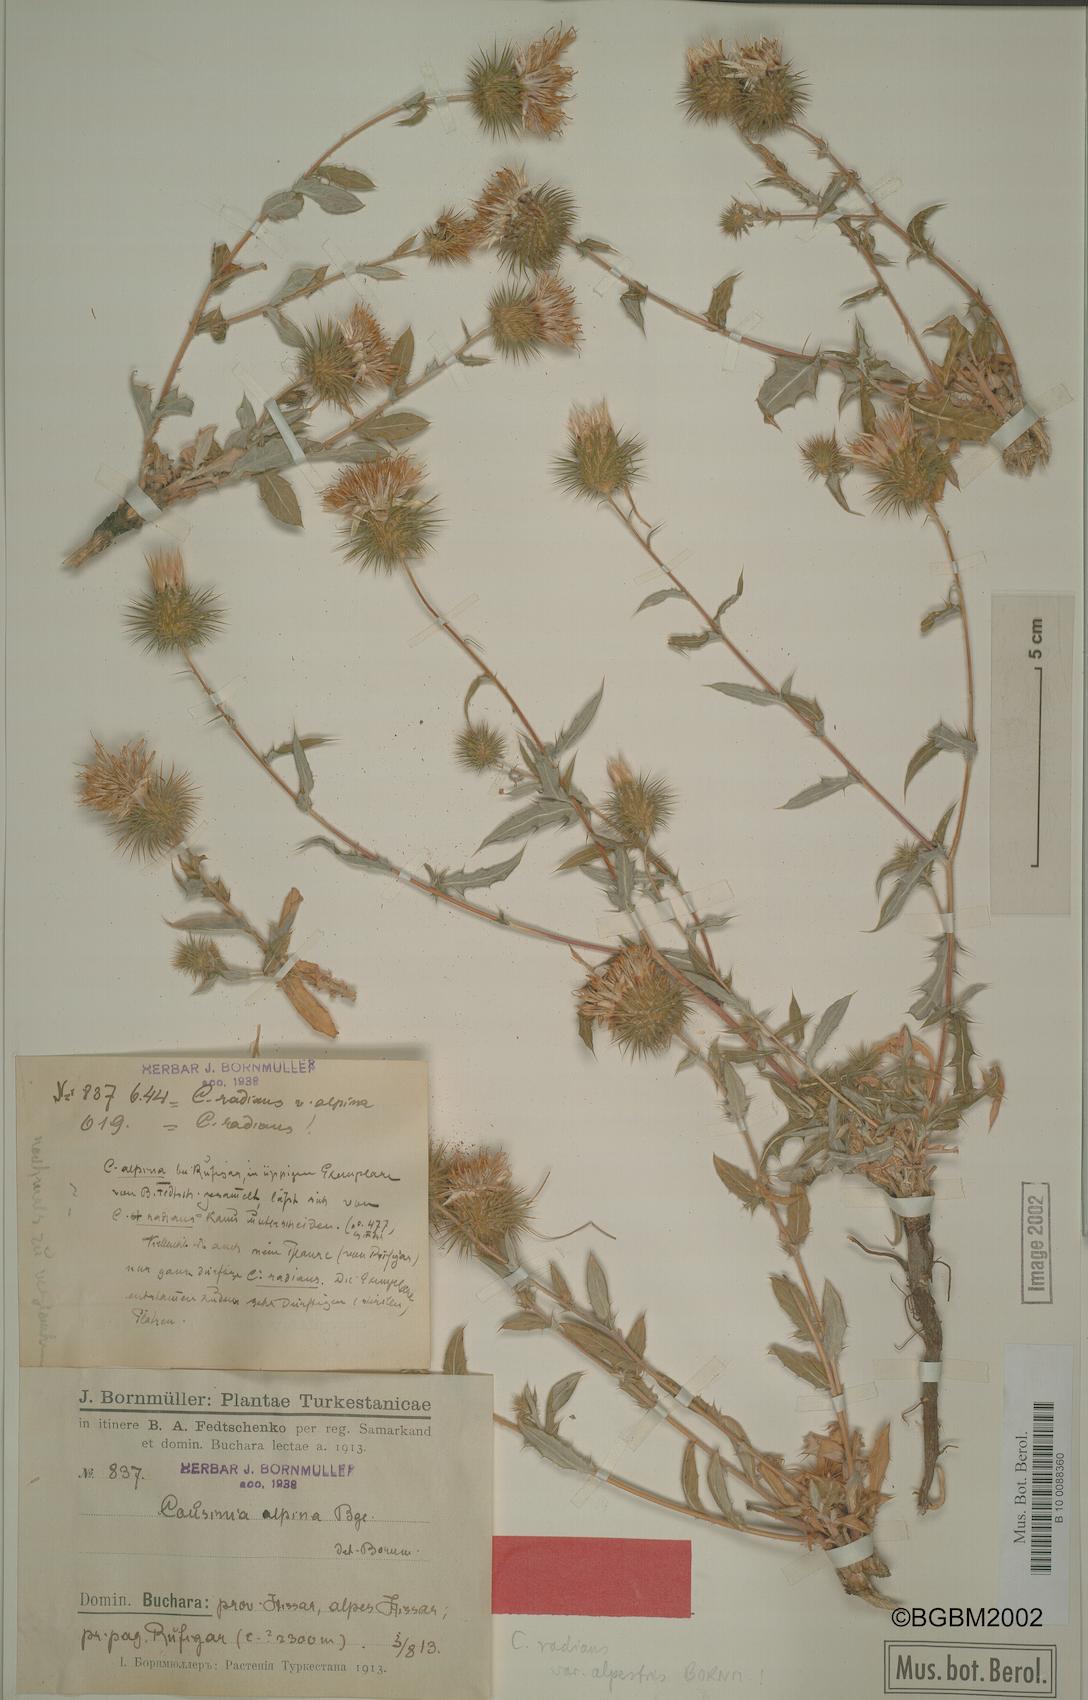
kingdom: Plantae
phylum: Tracheophyta
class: Magnoliopsida
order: Asterales
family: Asteraceae
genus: Cousinia
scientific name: Cousinia alpestris
